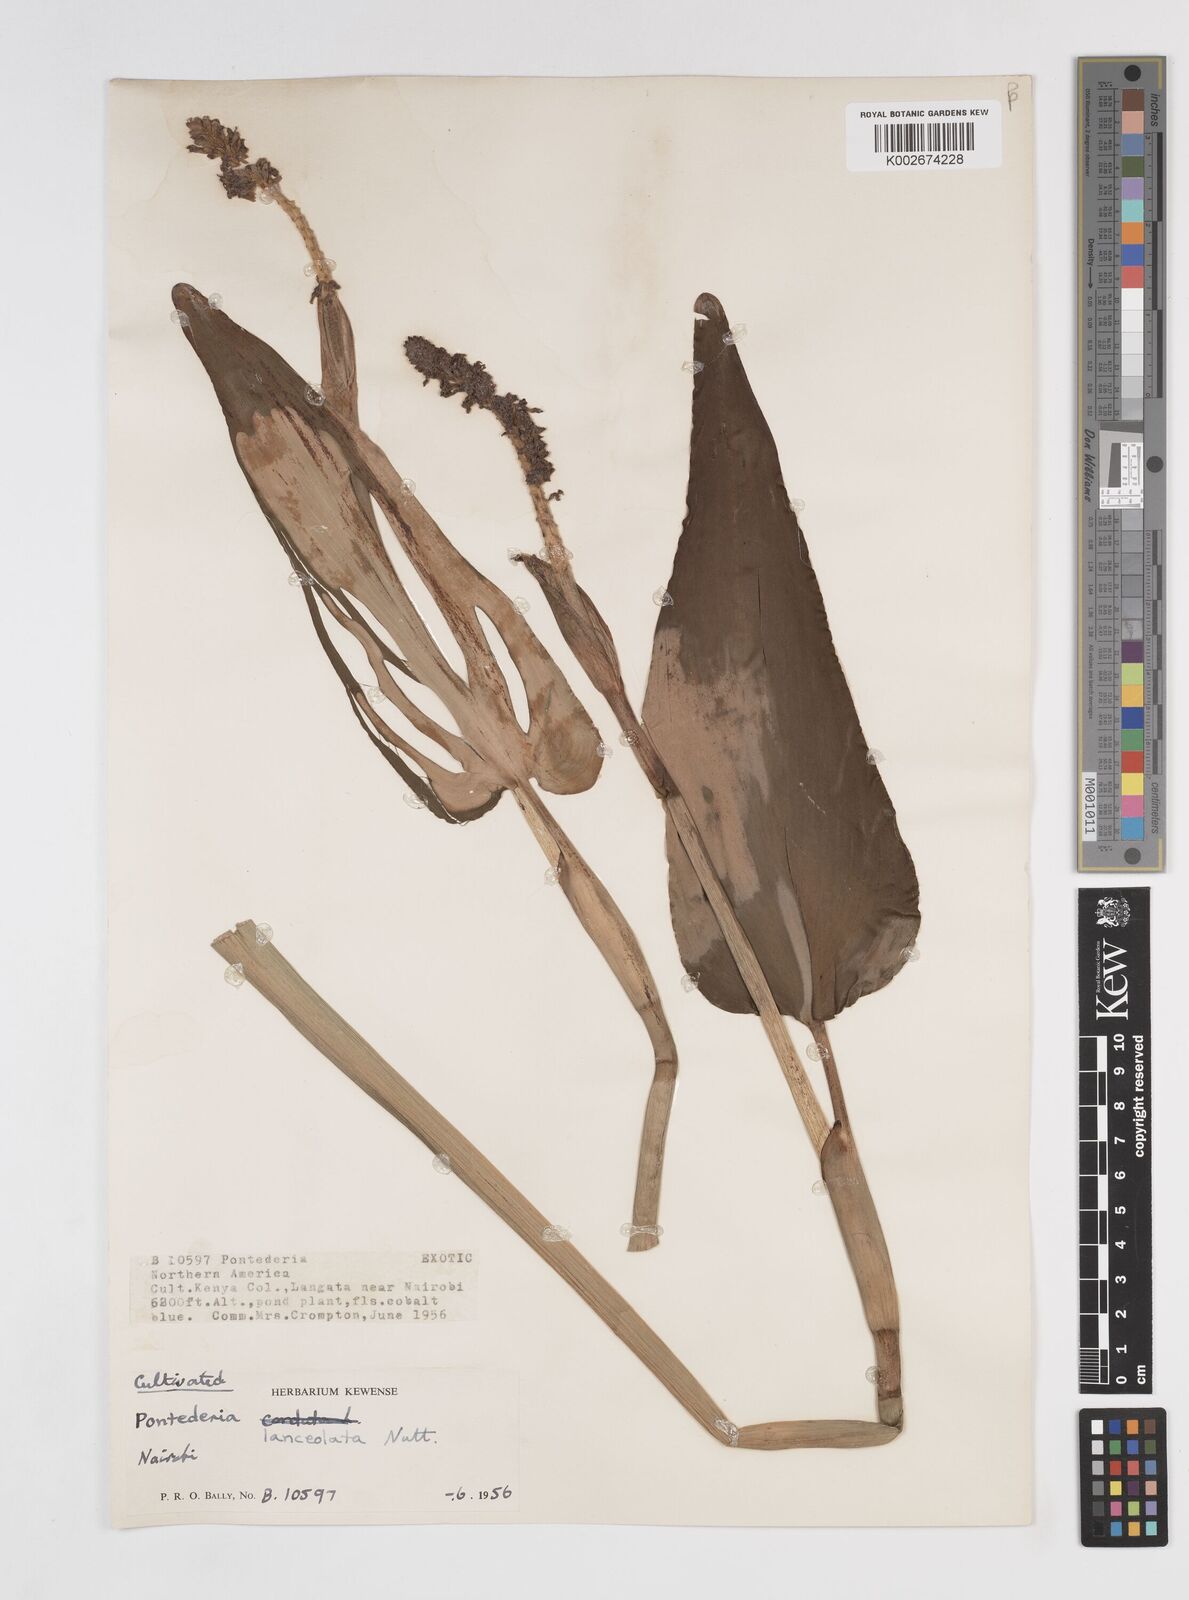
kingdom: Plantae
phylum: Tracheophyta
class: Liliopsida
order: Commelinales
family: Pontederiaceae
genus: Pontederia
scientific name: Pontederia
